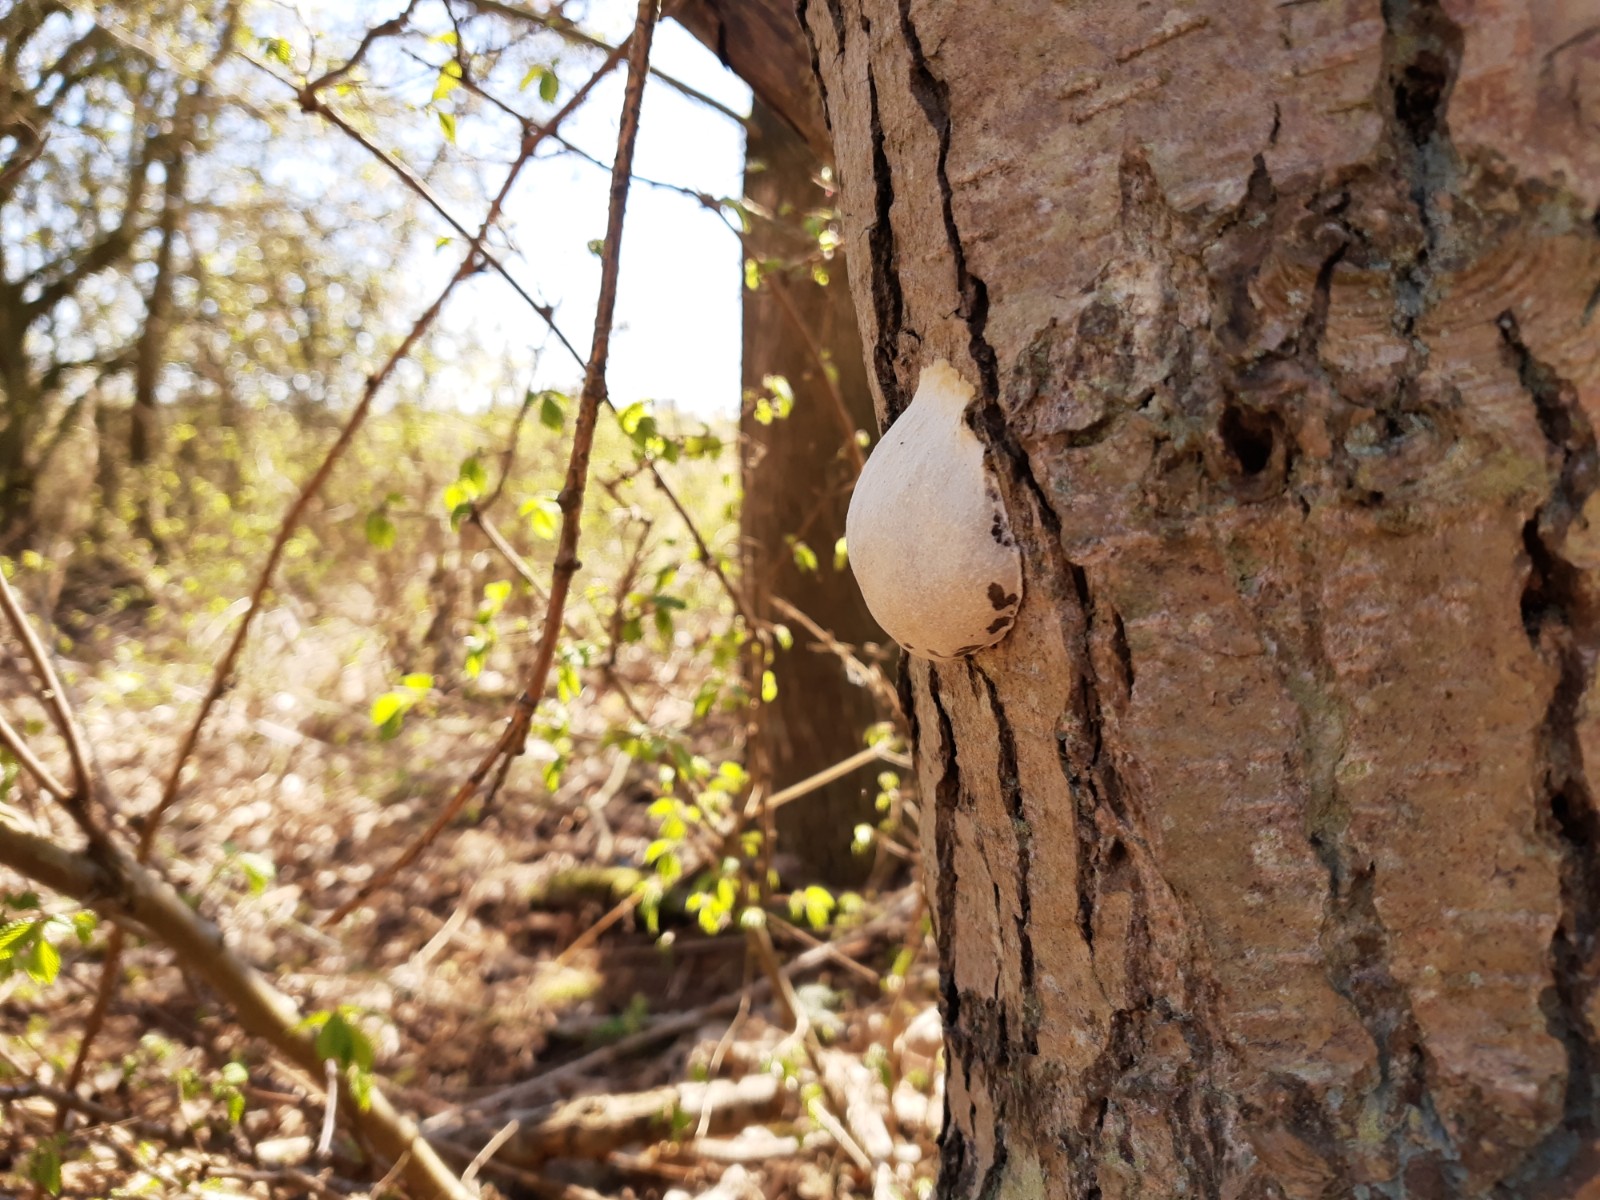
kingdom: Protozoa
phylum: Mycetozoa
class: Myxomycetes
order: Cribrariales
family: Tubiferaceae
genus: Reticularia
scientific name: Reticularia lycoperdon
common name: skinnende støvpude
